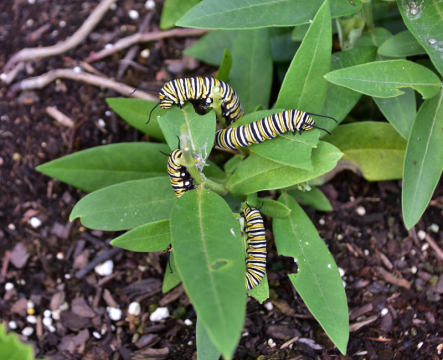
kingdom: Animalia
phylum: Arthropoda
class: Insecta
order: Lepidoptera
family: Nymphalidae
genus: Danaus
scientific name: Danaus plexippus
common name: Monarch
